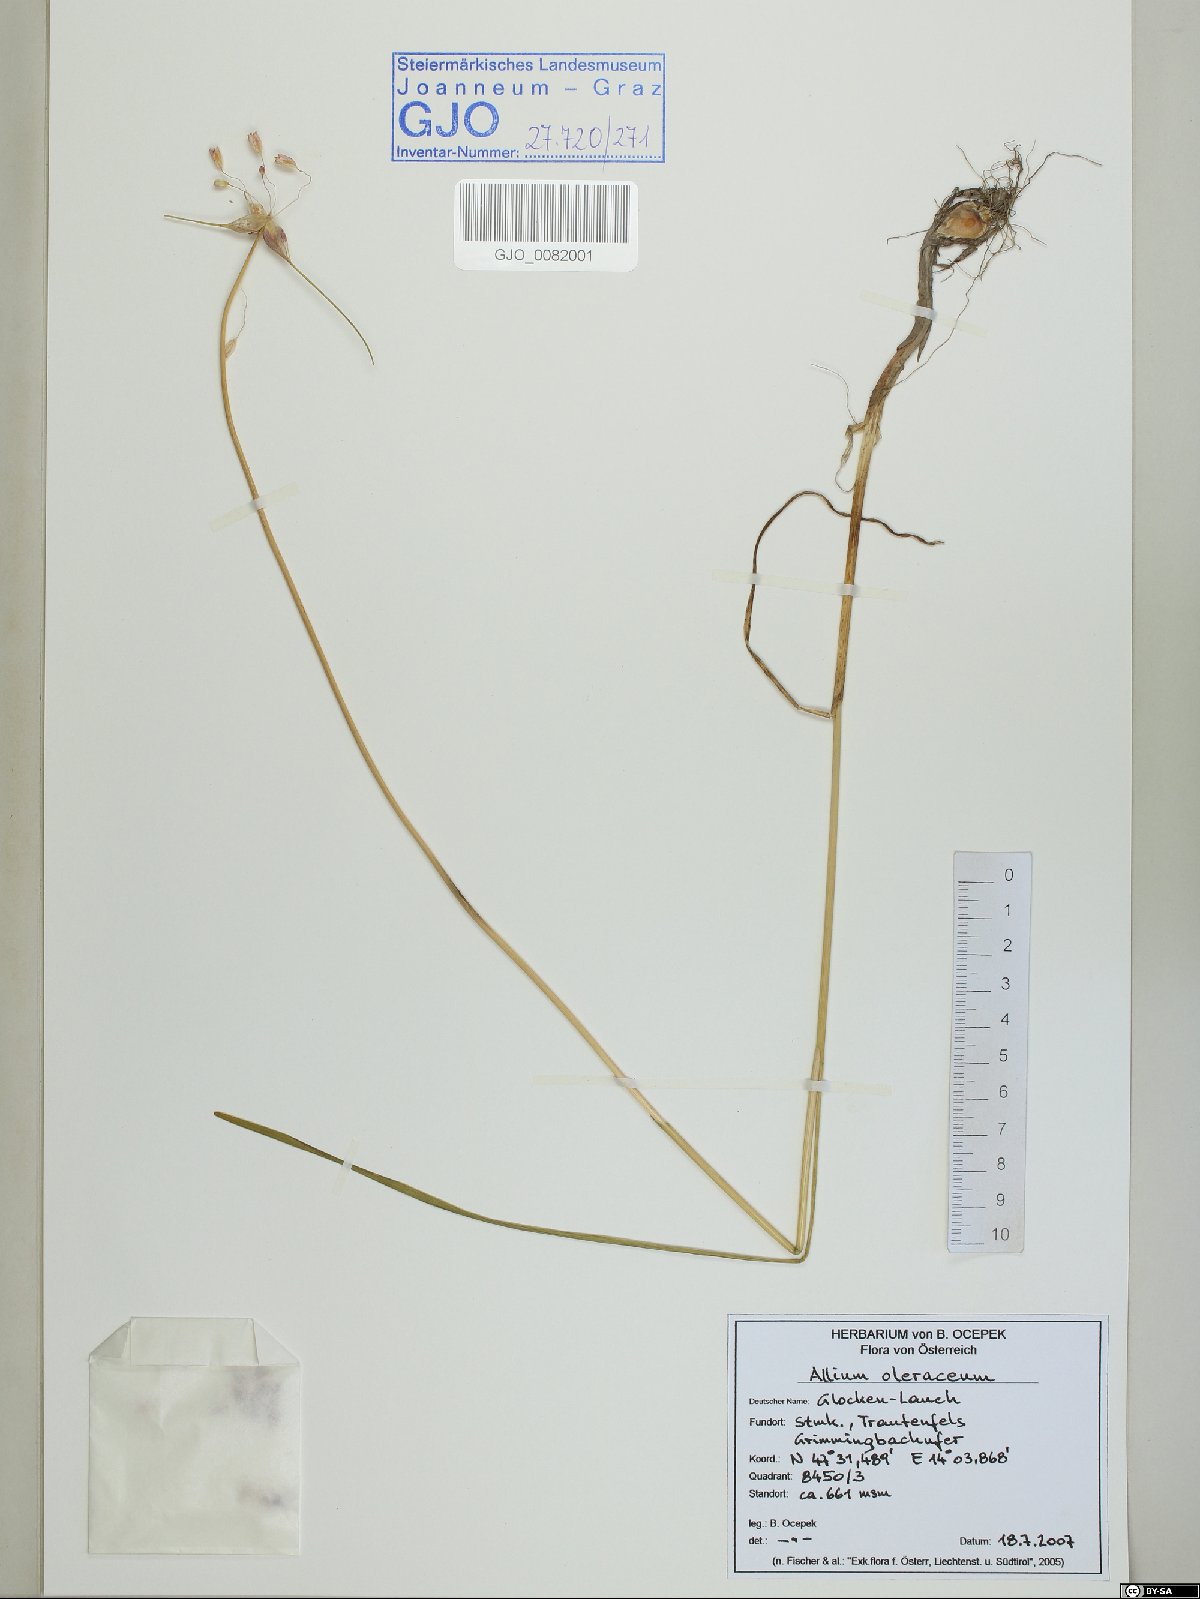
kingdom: Plantae
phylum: Tracheophyta
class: Liliopsida
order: Asparagales
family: Amaryllidaceae
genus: Allium
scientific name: Allium oleraceum
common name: Field garlic
